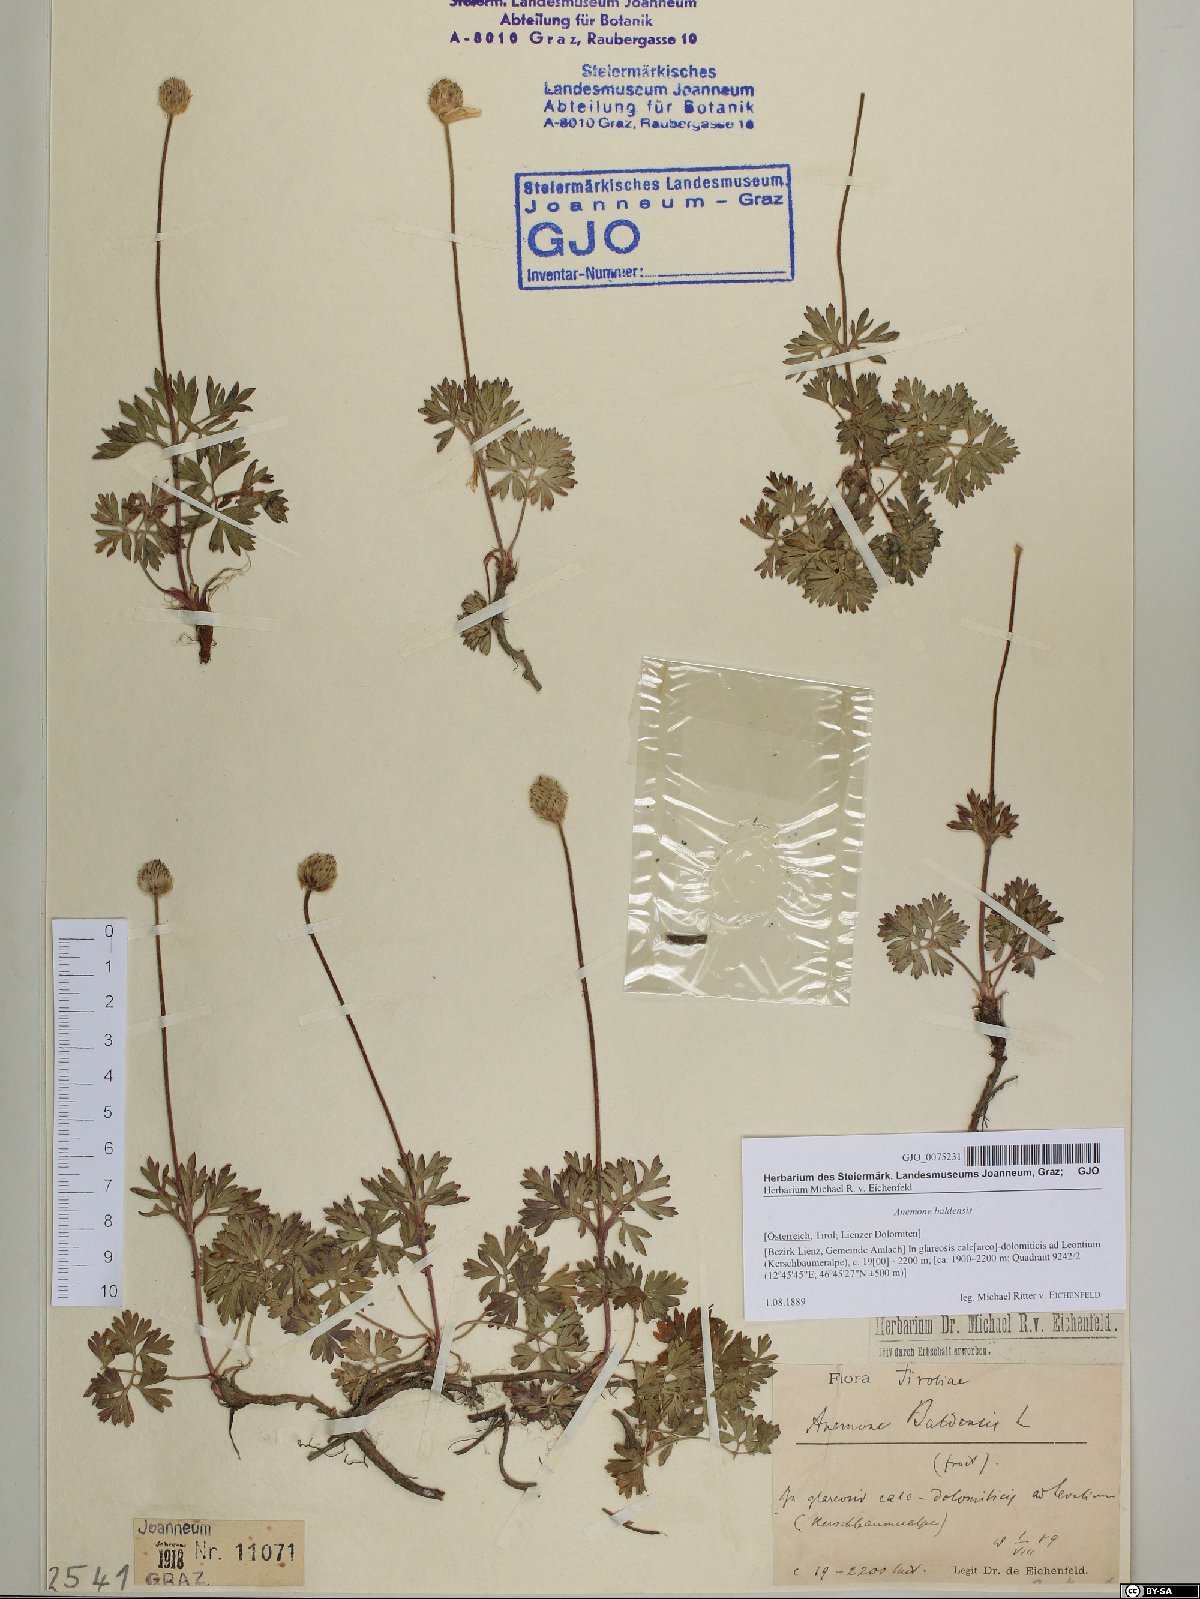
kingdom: Plantae
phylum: Tracheophyta
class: Magnoliopsida
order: Ranunculales
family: Ranunculaceae
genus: Anemone
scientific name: Anemone baldensis
